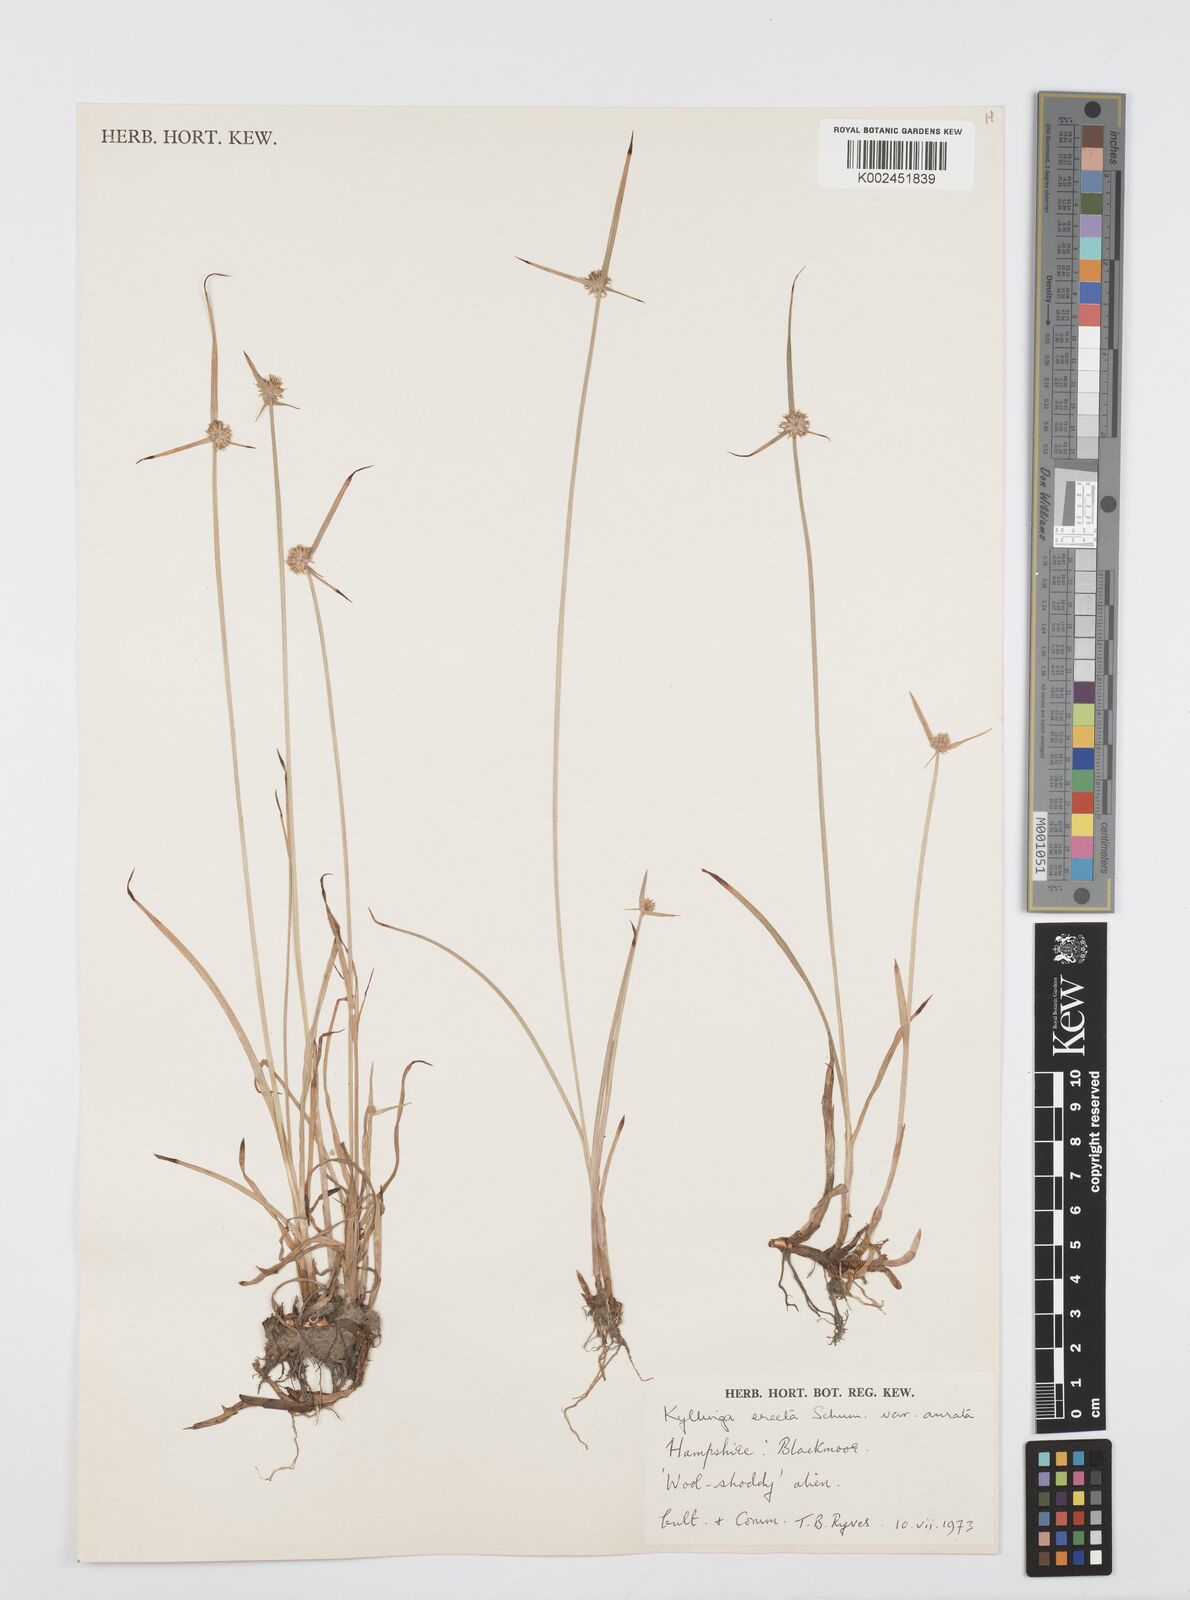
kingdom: Plantae
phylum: Tracheophyta
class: Liliopsida
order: Poales
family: Cyperaceae
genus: Cyperus
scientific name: Cyperus erectus
